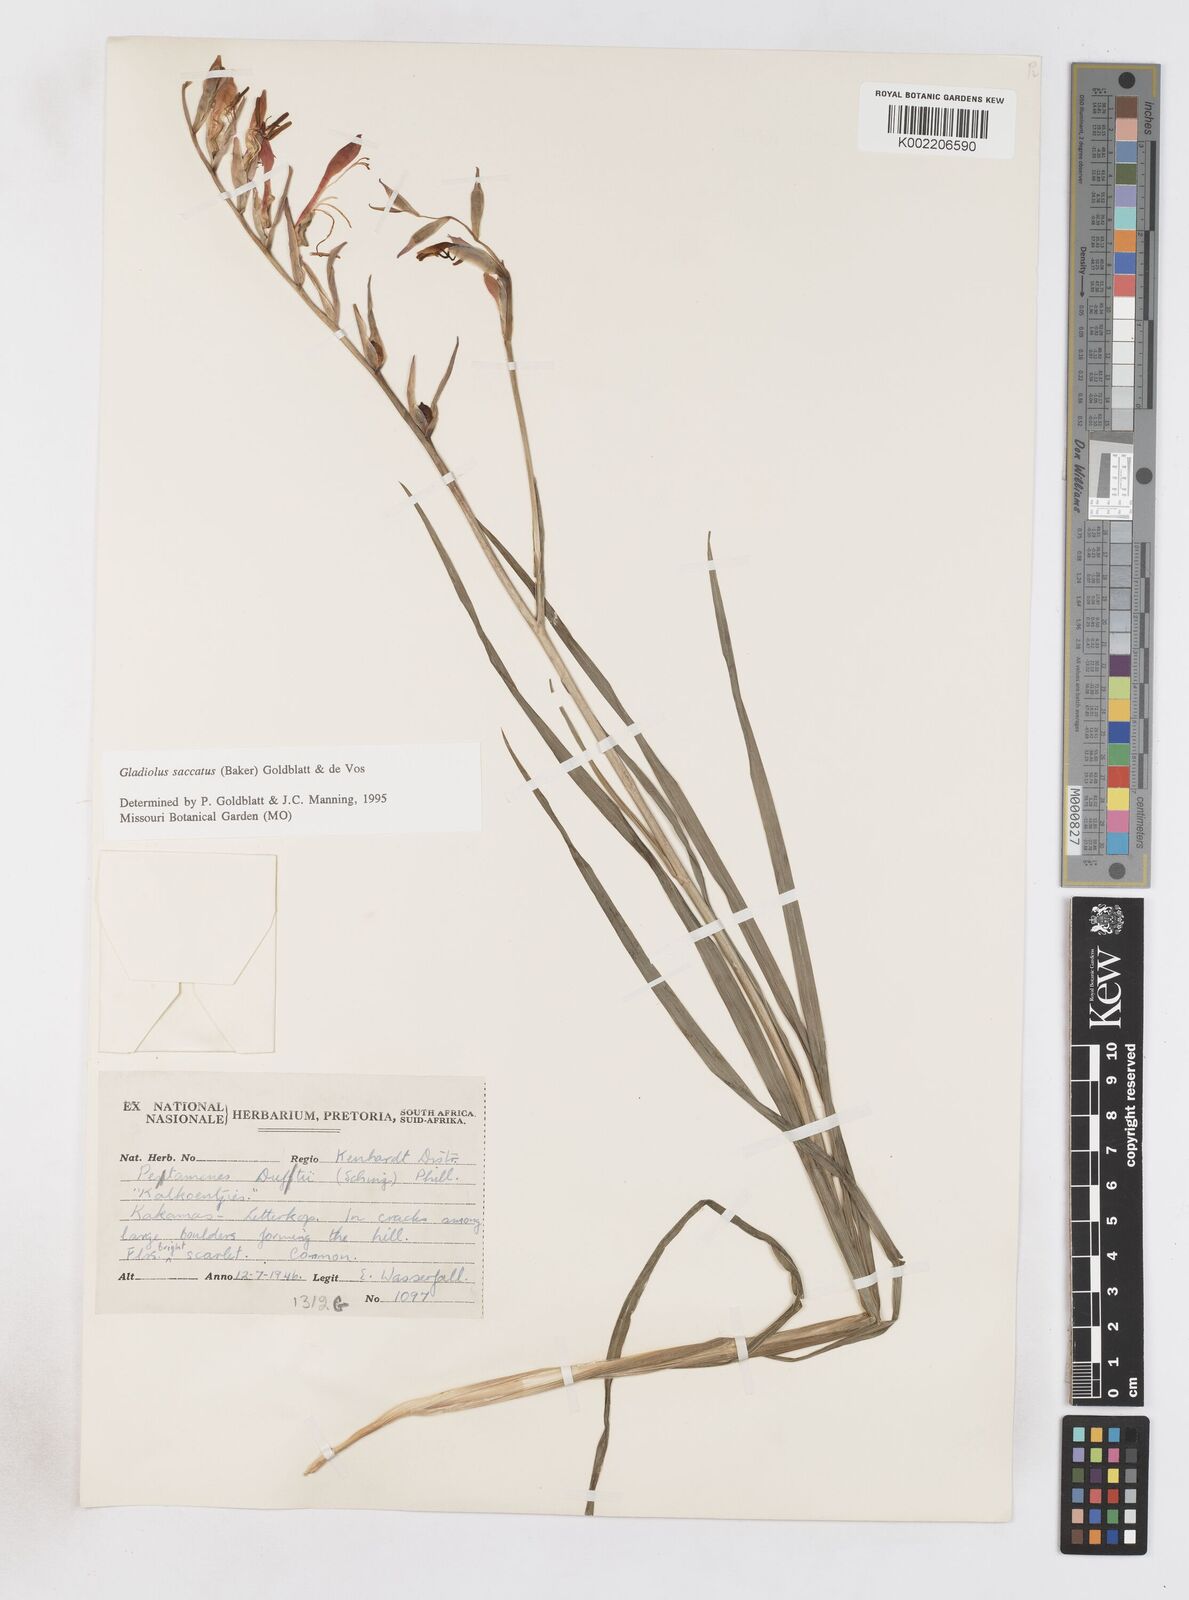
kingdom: Plantae
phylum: Tracheophyta
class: Liliopsida
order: Asparagales
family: Iridaceae
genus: Gladiolus
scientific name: Gladiolus saccatus
